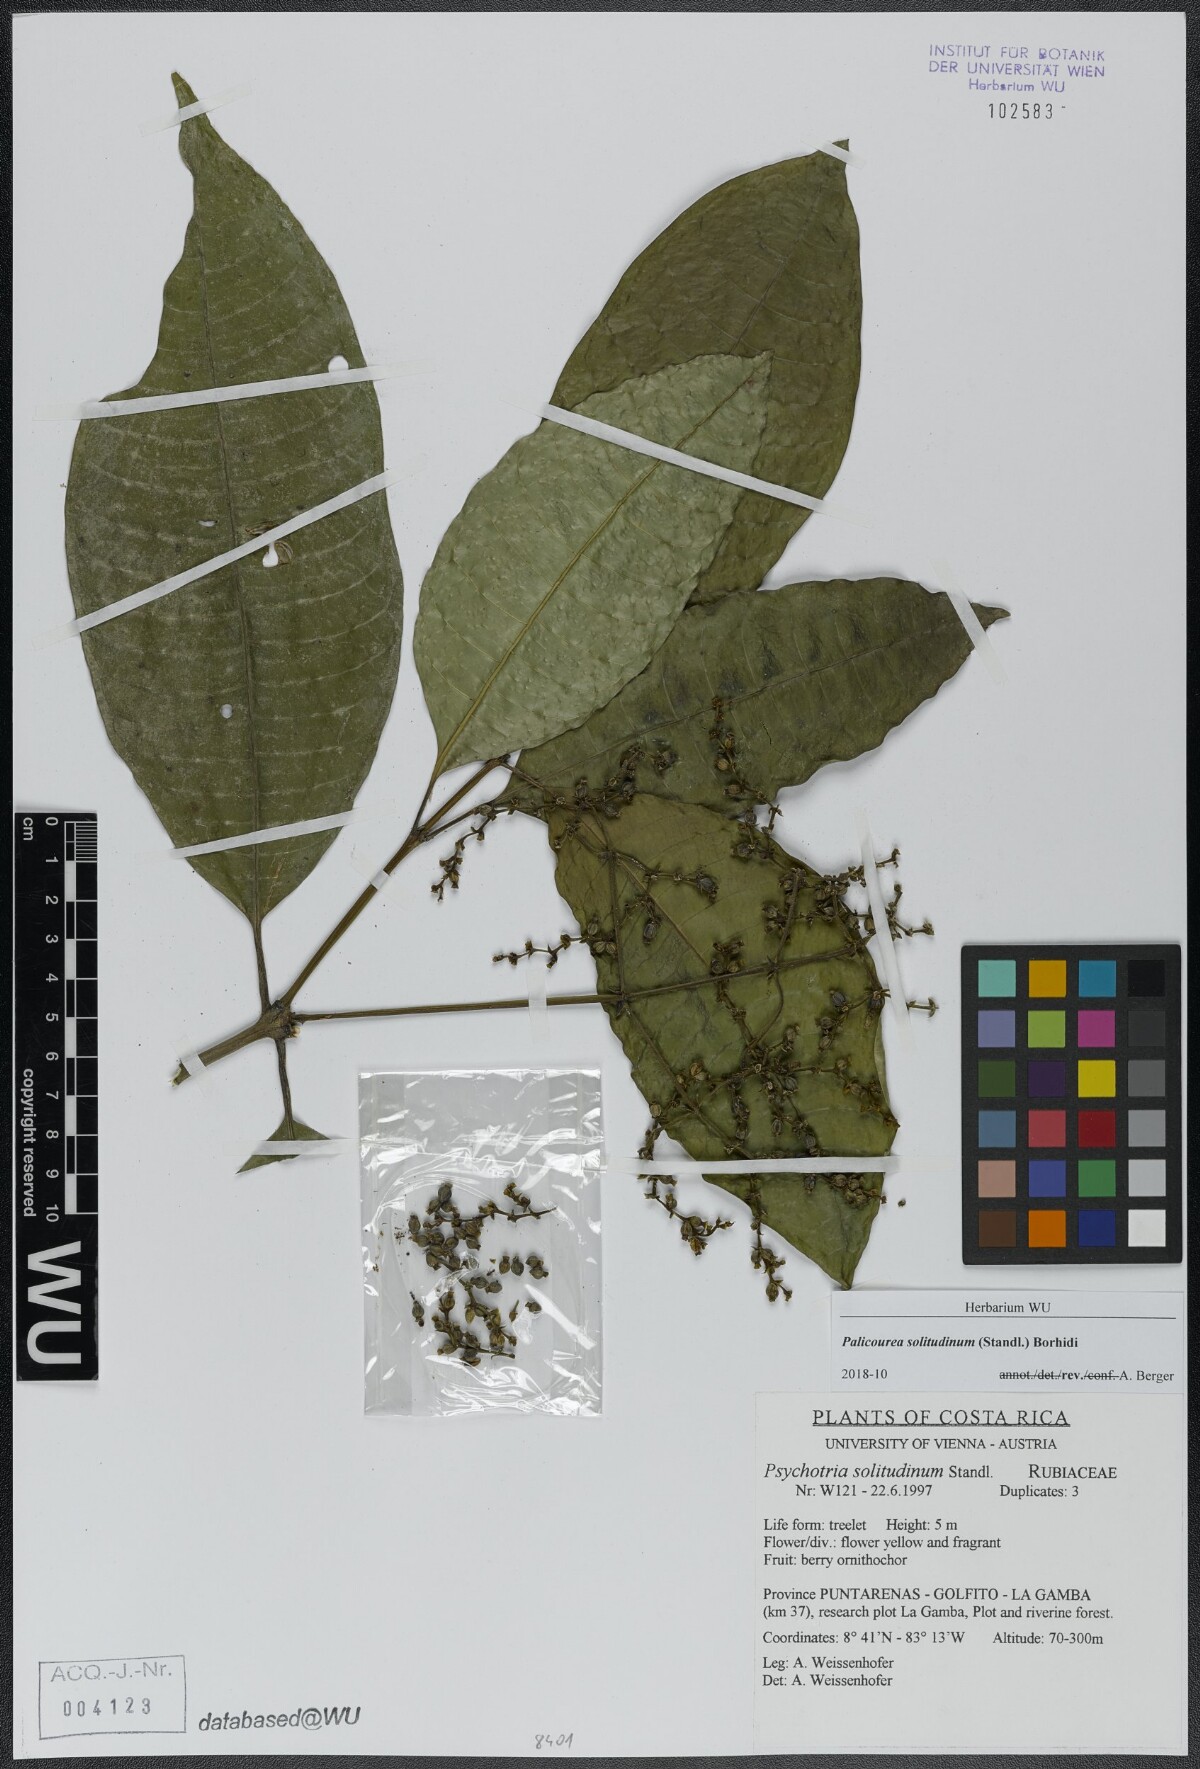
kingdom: Plantae
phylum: Tracheophyta
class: Magnoliopsida
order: Gentianales
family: Rubiaceae
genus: Palicourea
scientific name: Palicourea solitudinum
